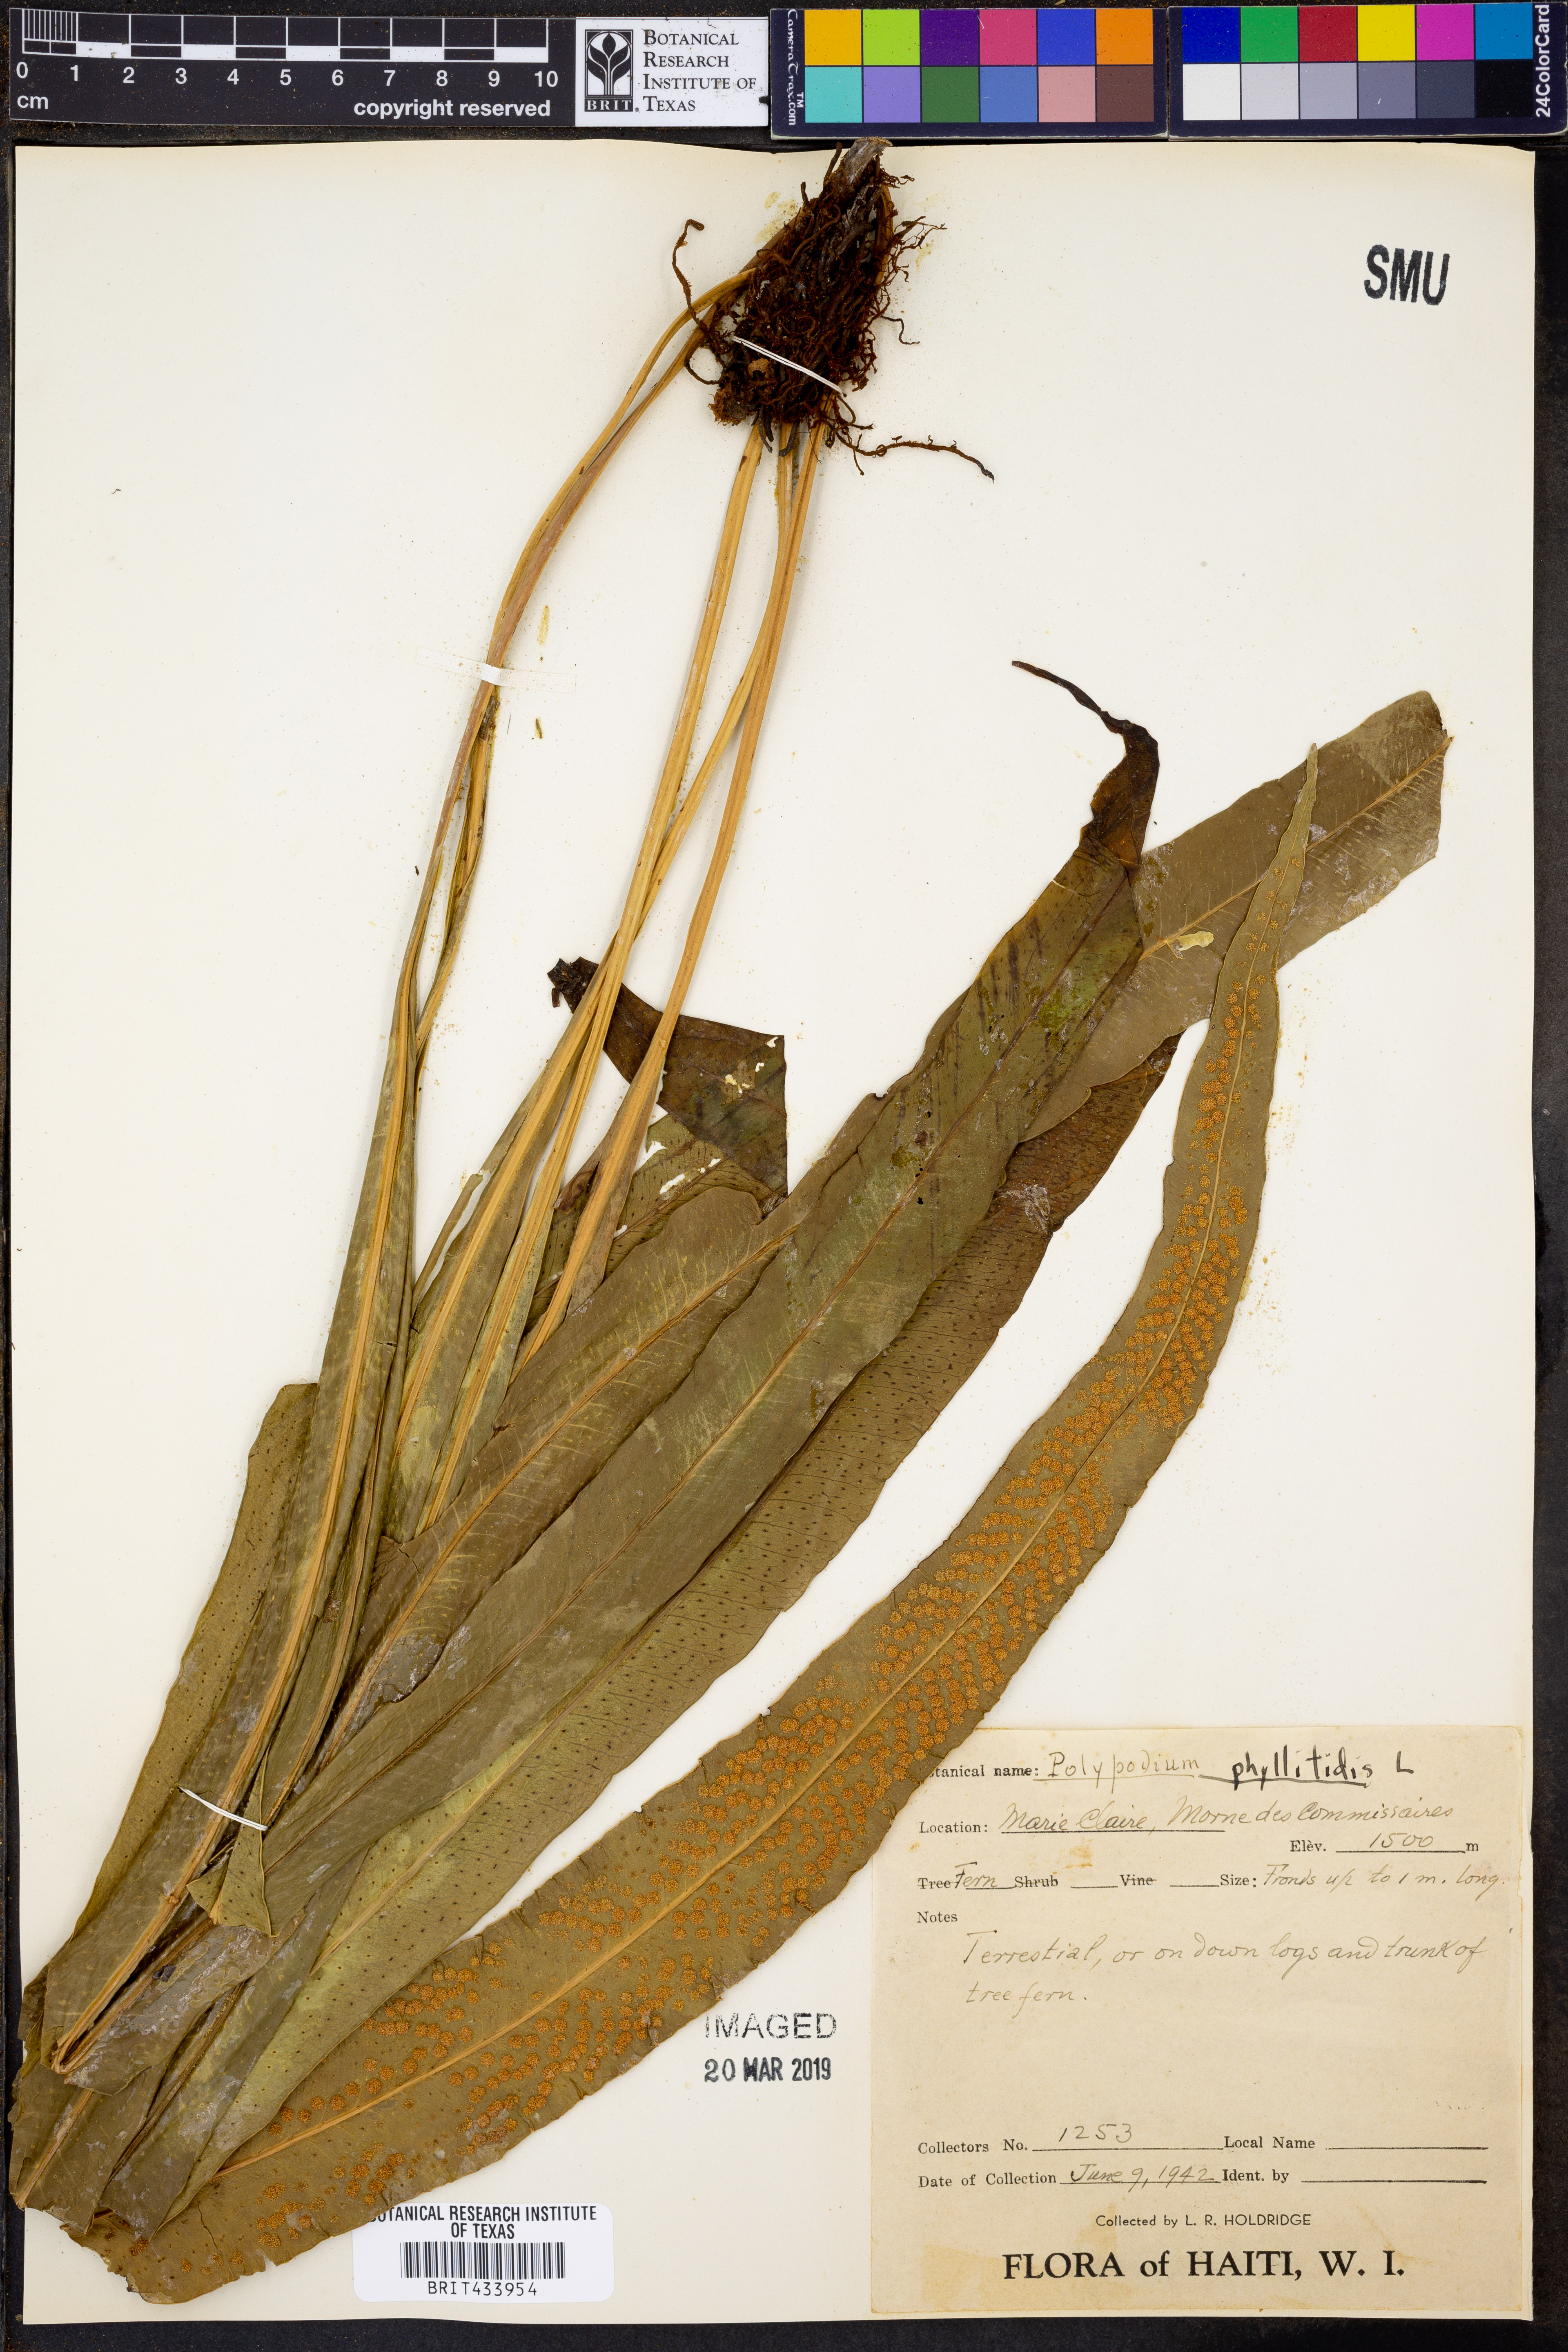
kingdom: Plantae
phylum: Tracheophyta
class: Polypodiopsida
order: Polypodiales
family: Polypodiaceae
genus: Campyloneurum
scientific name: Campyloneurum phyllitidis
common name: Cow-tongue fern
